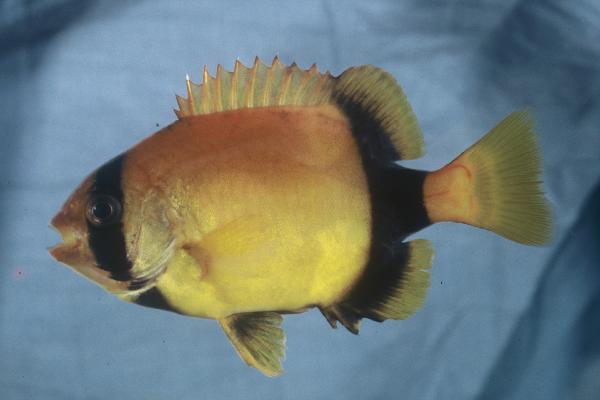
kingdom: Animalia
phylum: Chordata
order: Perciformes
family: Oplegnathidae
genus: Oplegnathus
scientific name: Oplegnathus conwayi
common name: Cape knifejaw
